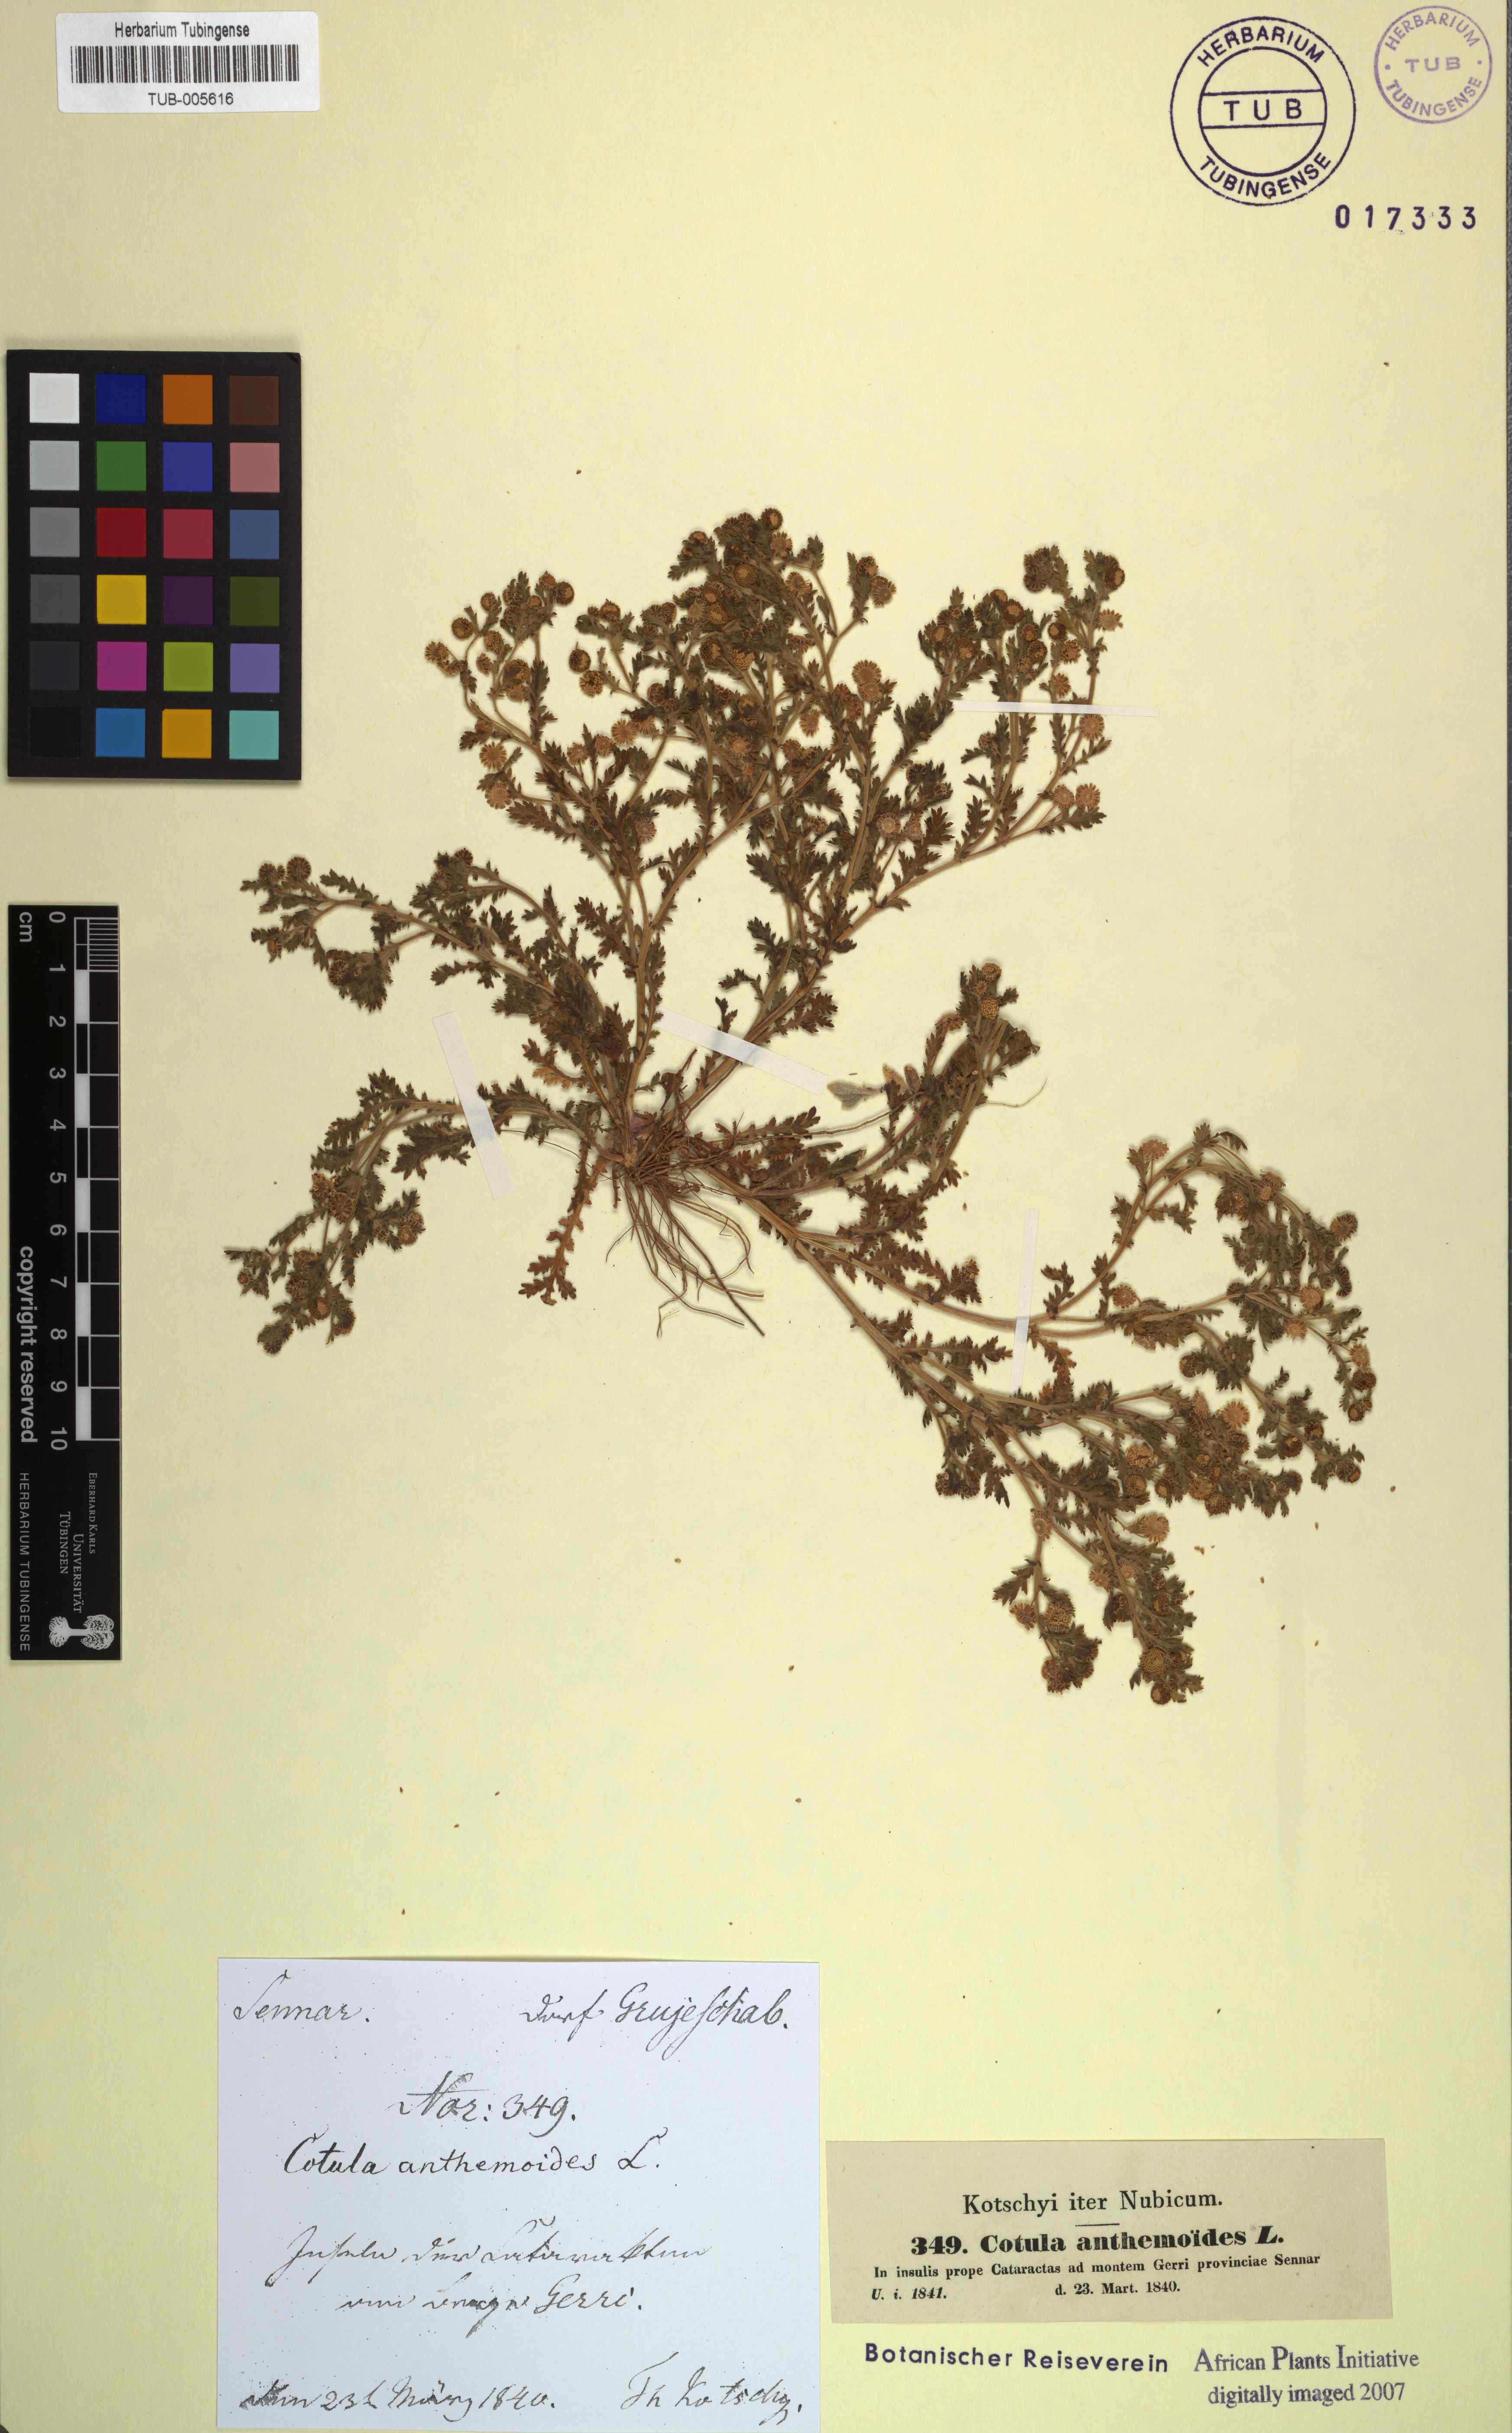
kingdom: Plantae
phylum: Tracheophyta
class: Magnoliopsida
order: Asterales
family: Asteraceae
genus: Cotula
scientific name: Cotula anthemoides
